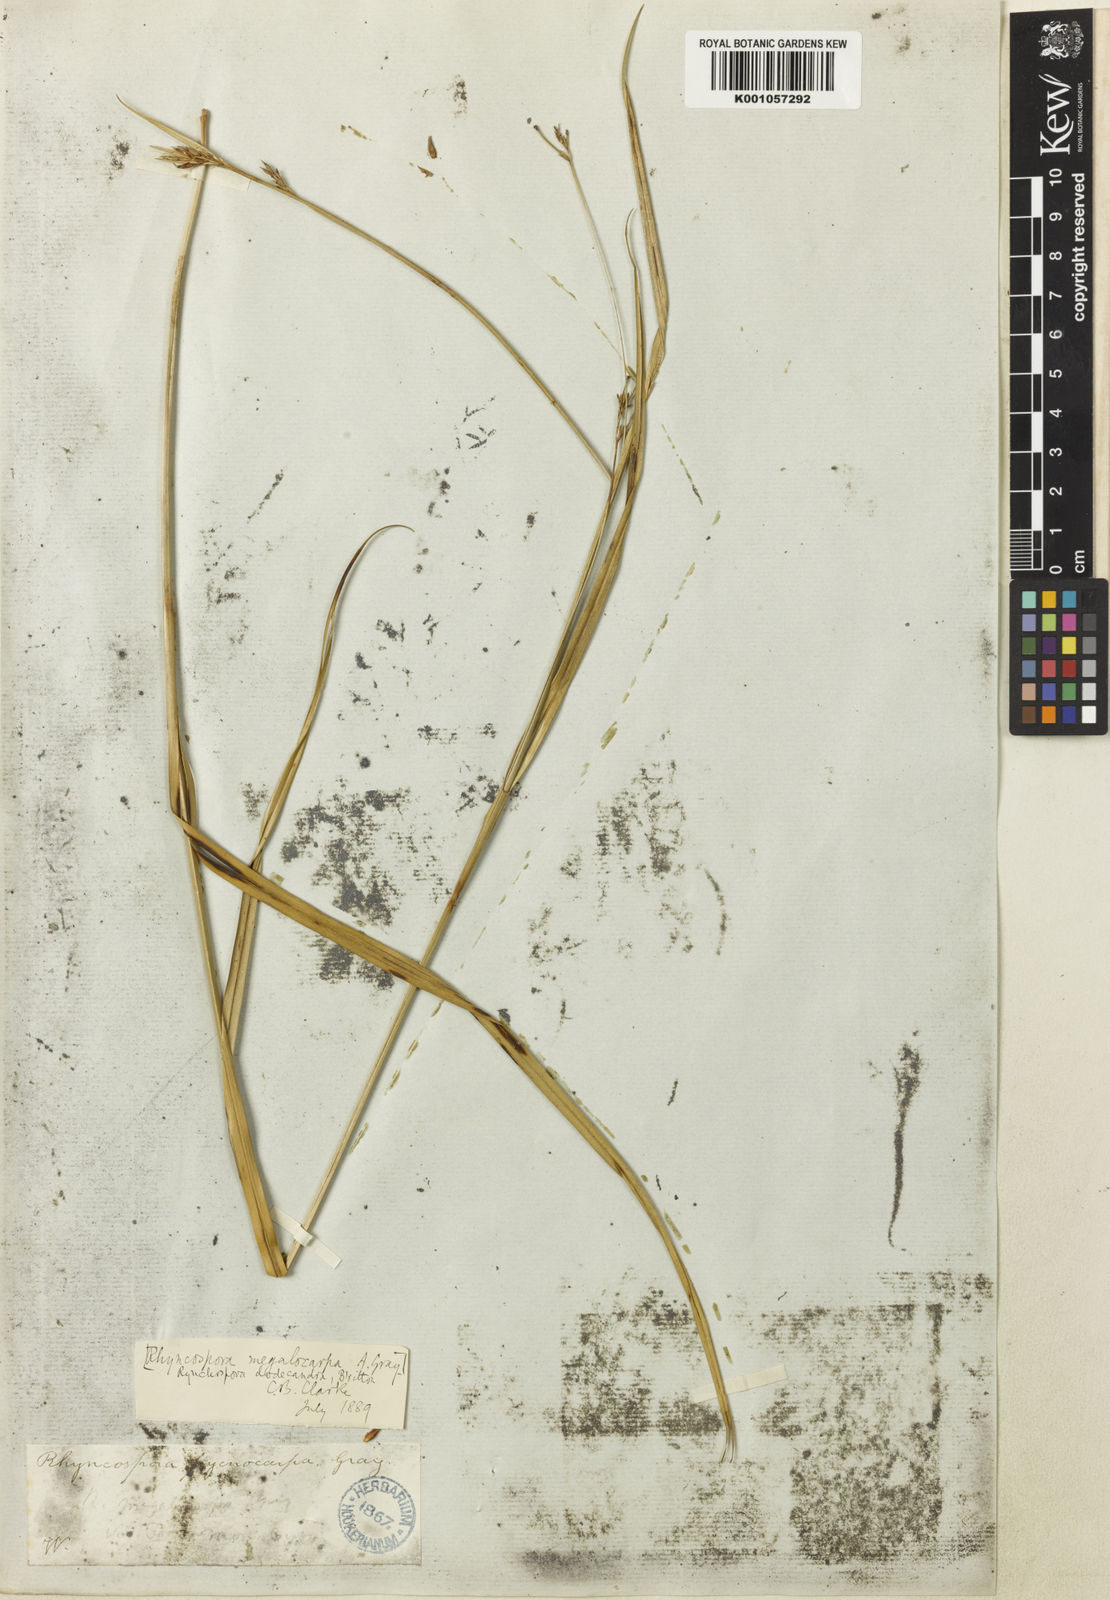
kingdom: Plantae
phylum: Tracheophyta
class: Liliopsida
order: Poales
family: Cyperaceae
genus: Rhynchospora
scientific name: Rhynchospora megalocarpa
